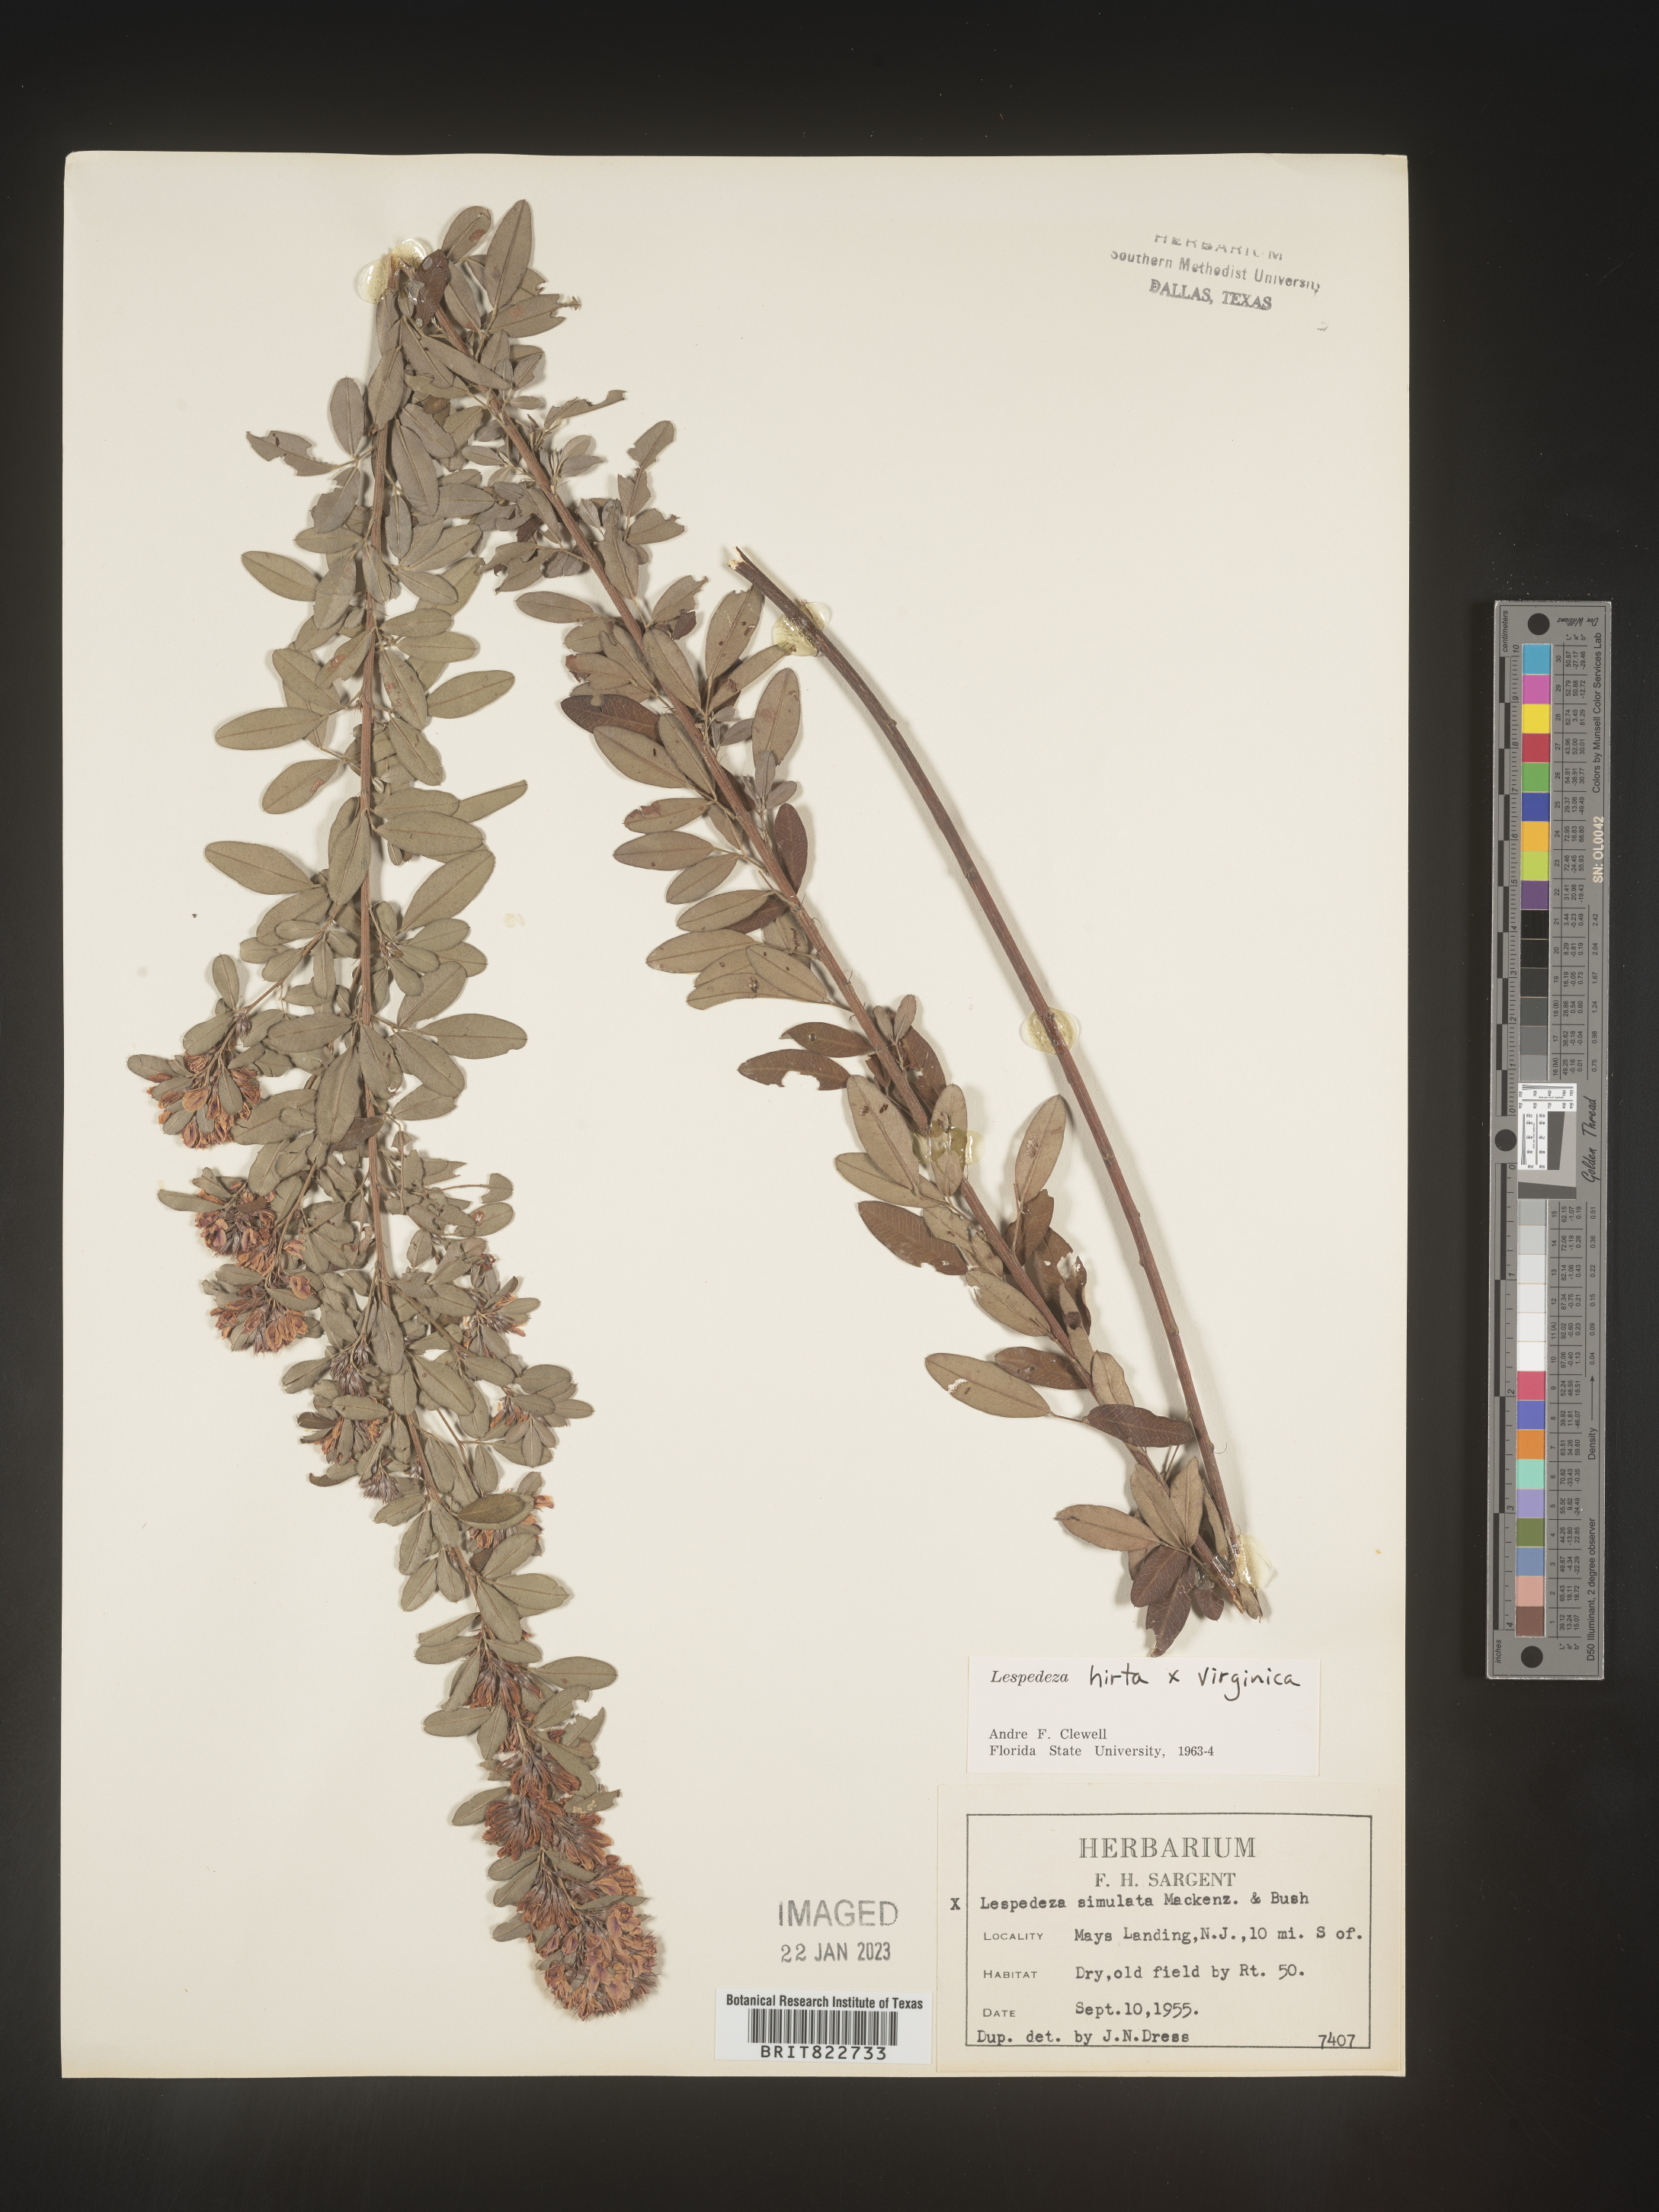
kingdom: Plantae
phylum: Tracheophyta
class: Magnoliopsida
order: Fabales
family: Fabaceae
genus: Lespedeza
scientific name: Lespedeza hirta
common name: Hairy lespedeza
